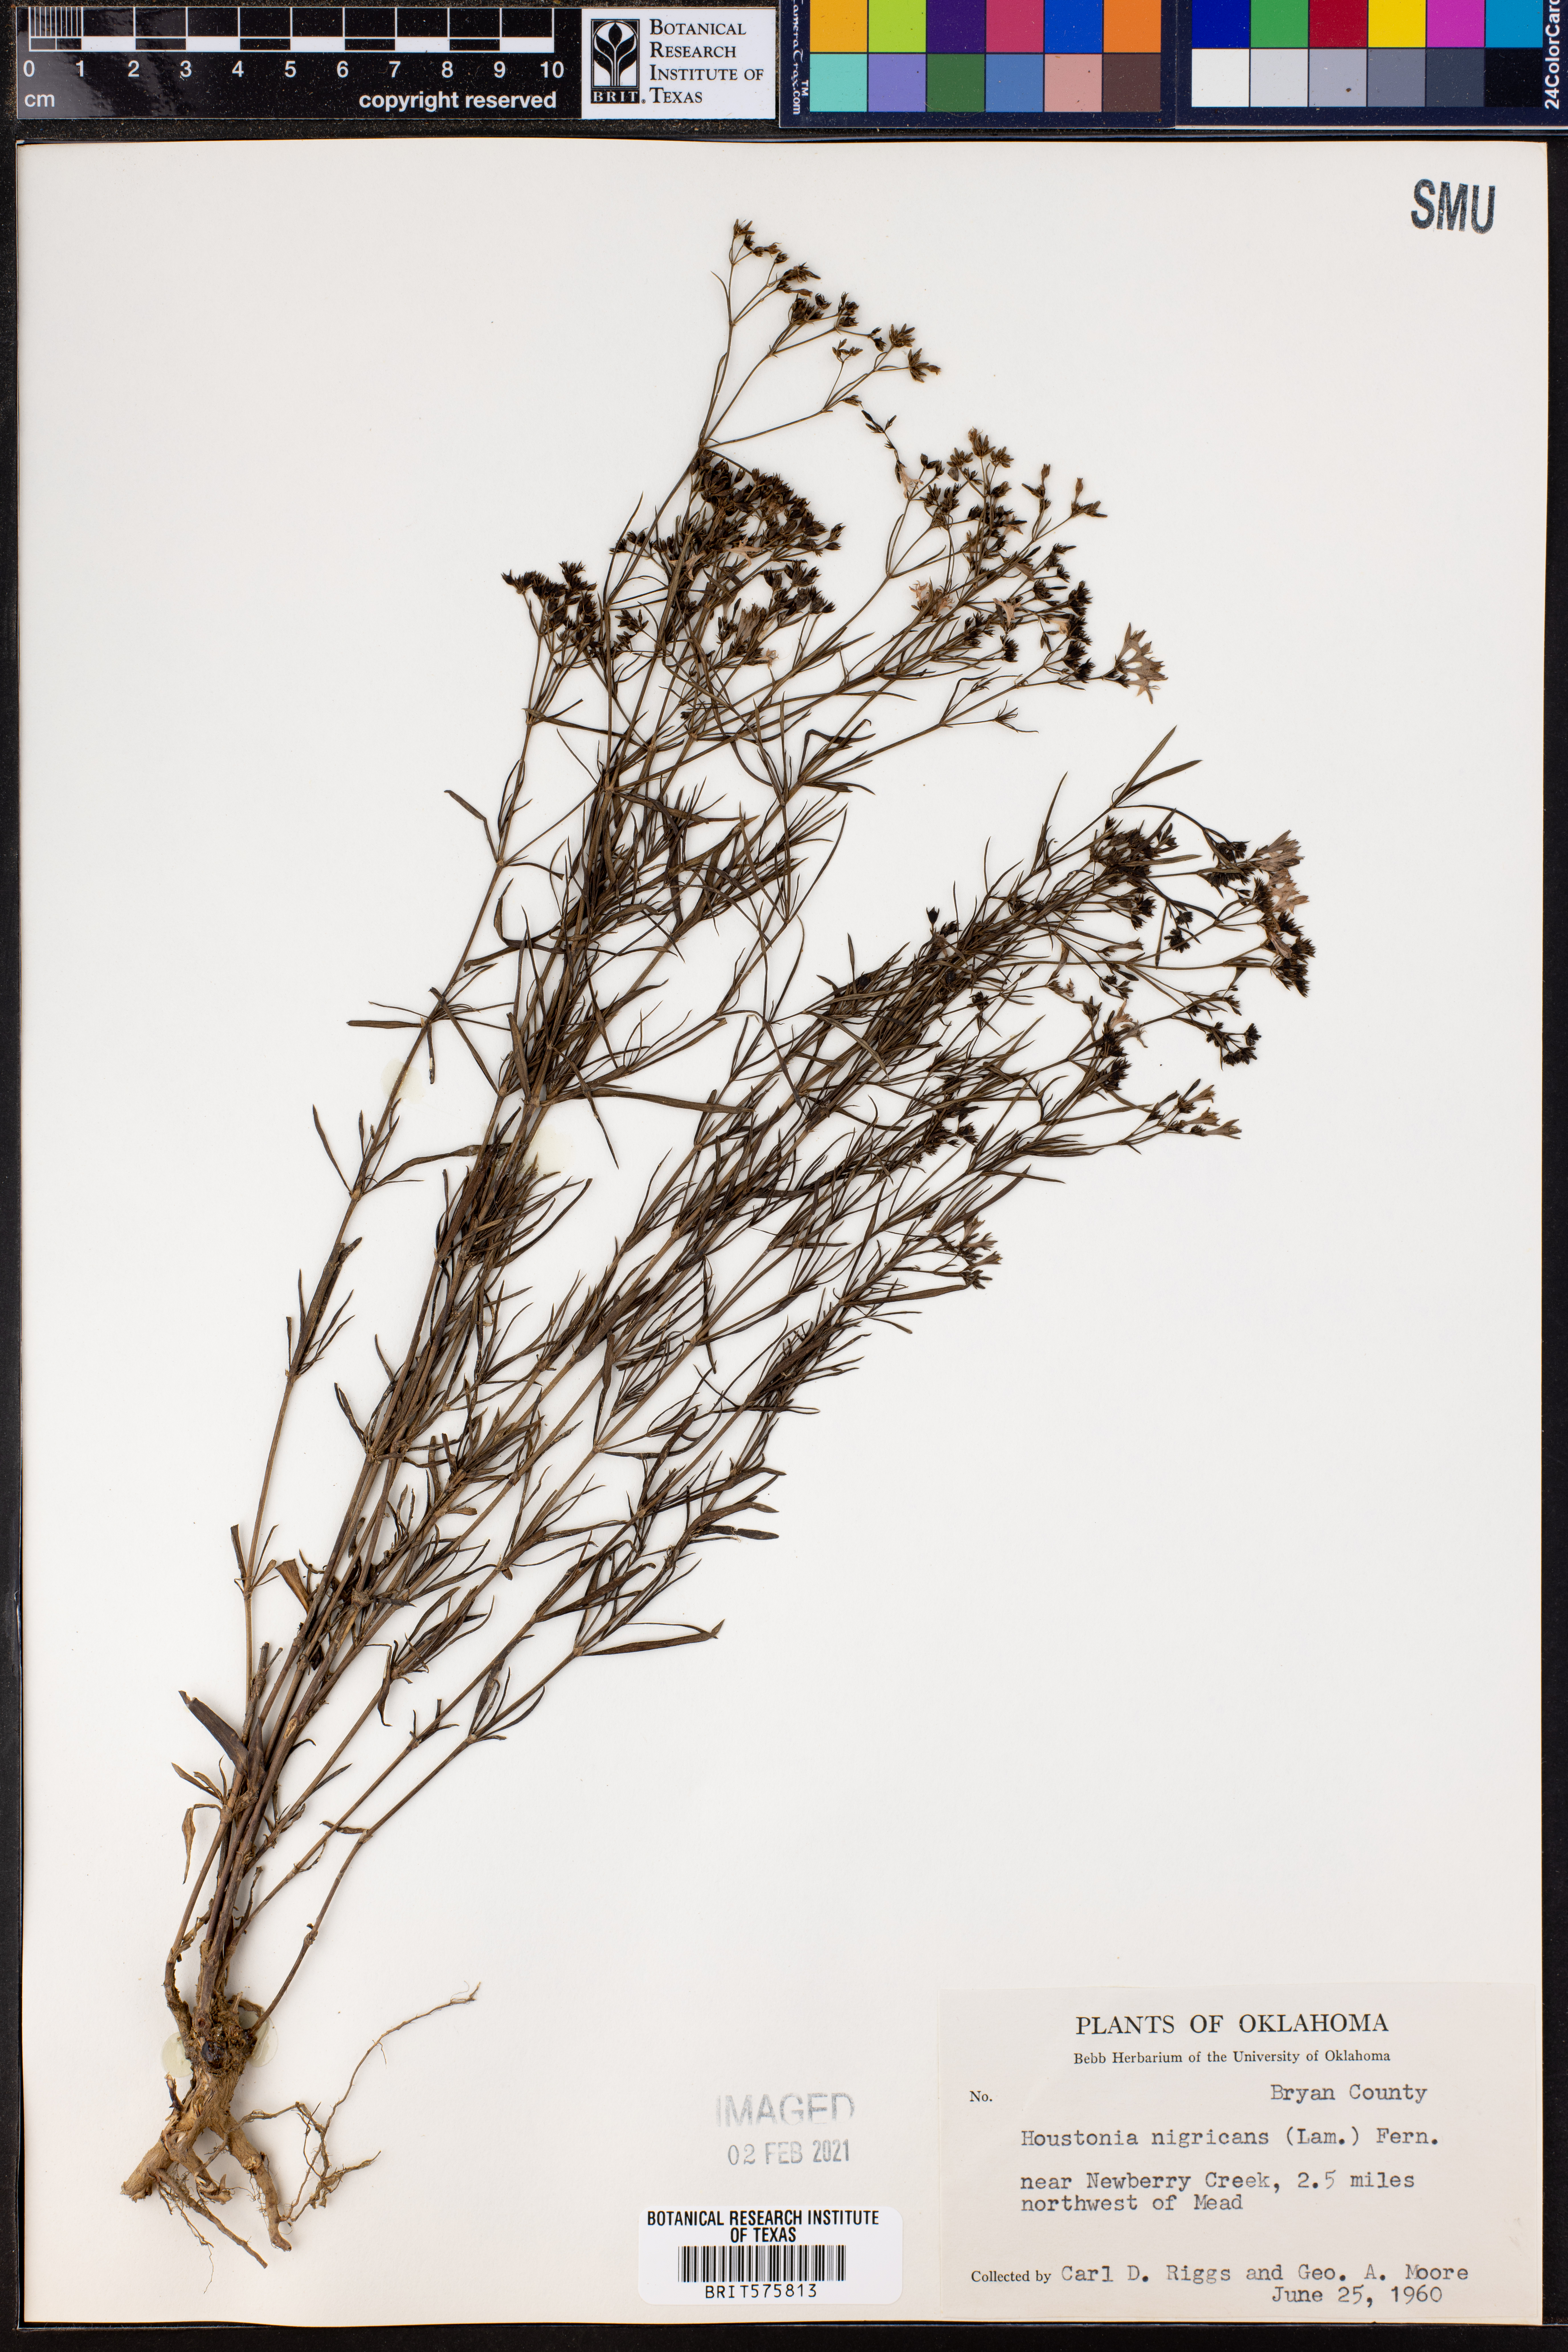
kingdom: Plantae
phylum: Tracheophyta
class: Magnoliopsida
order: Gentianales
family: Rubiaceae
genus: Stenaria
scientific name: Stenaria nigricans
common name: Diamondflowers
